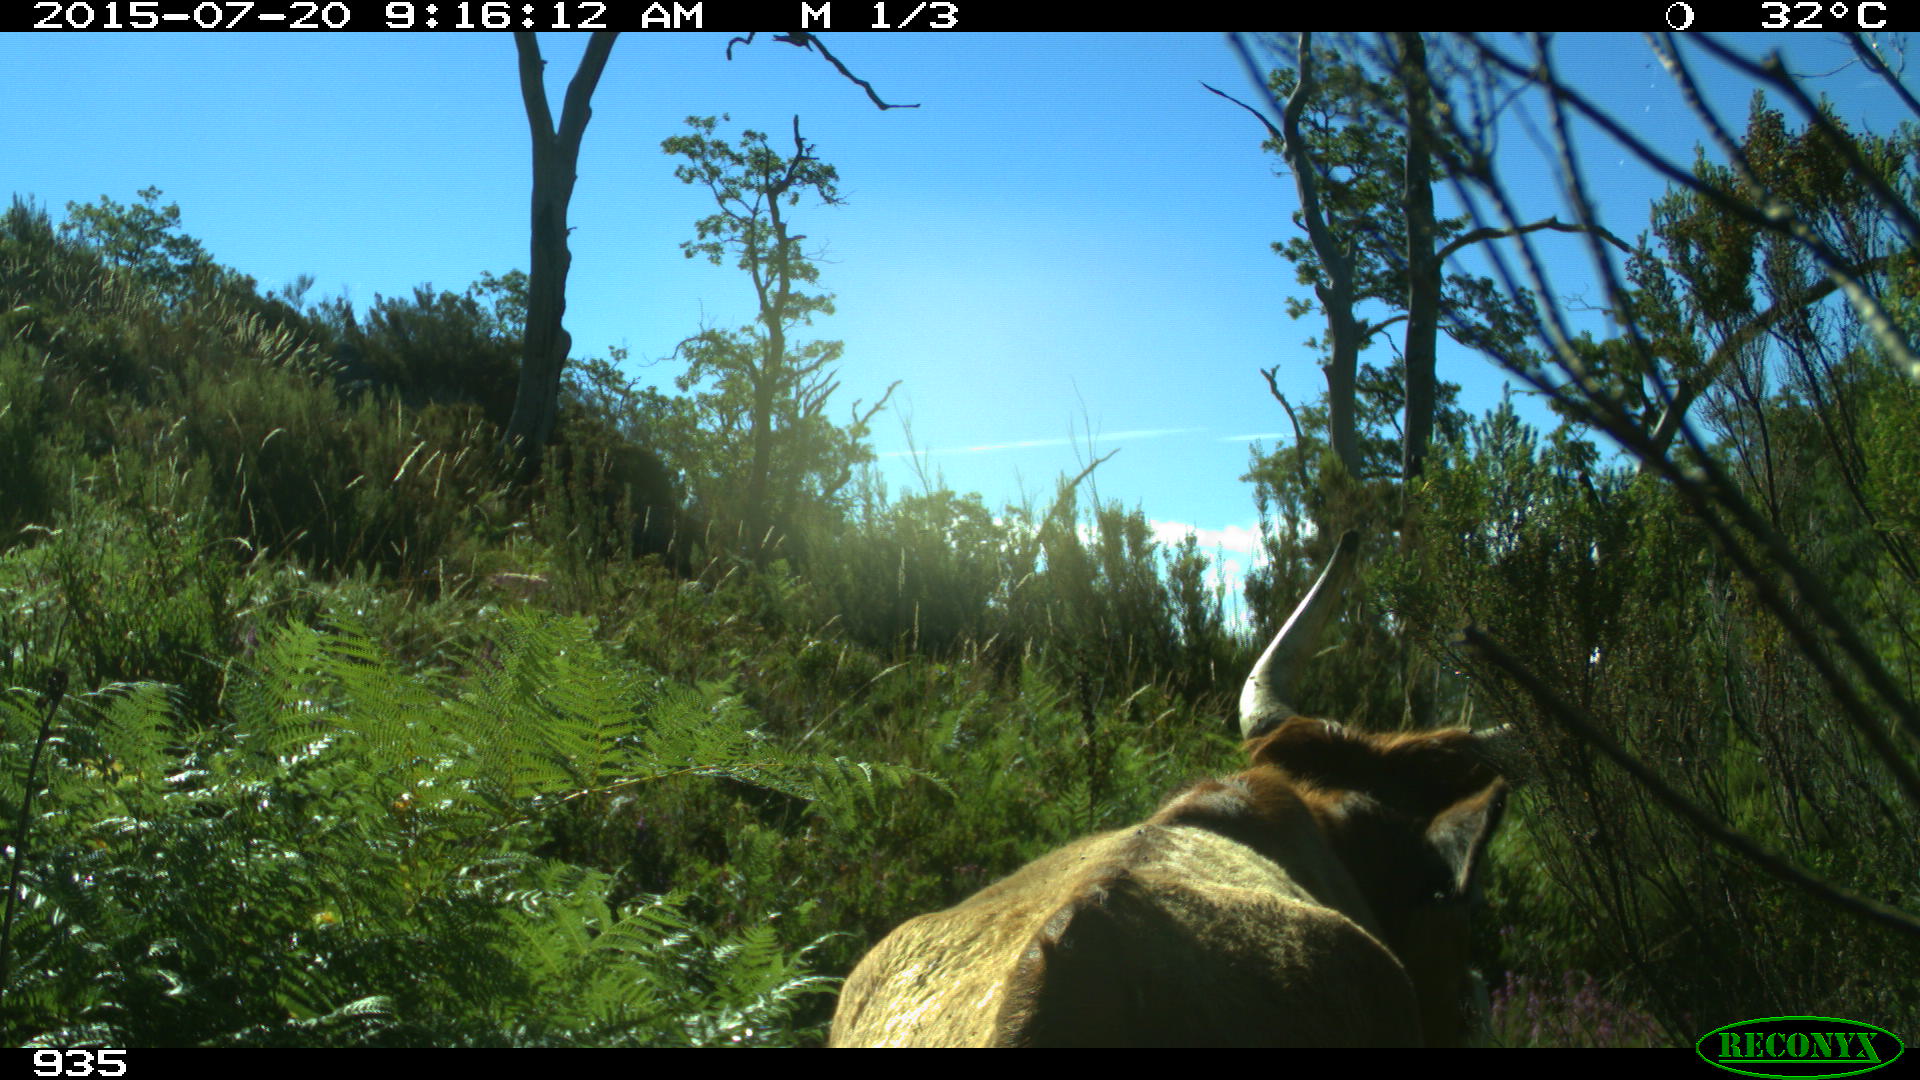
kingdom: Animalia
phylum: Chordata
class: Mammalia
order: Artiodactyla
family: Bovidae
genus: Bos
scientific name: Bos taurus
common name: Domesticated cattle
